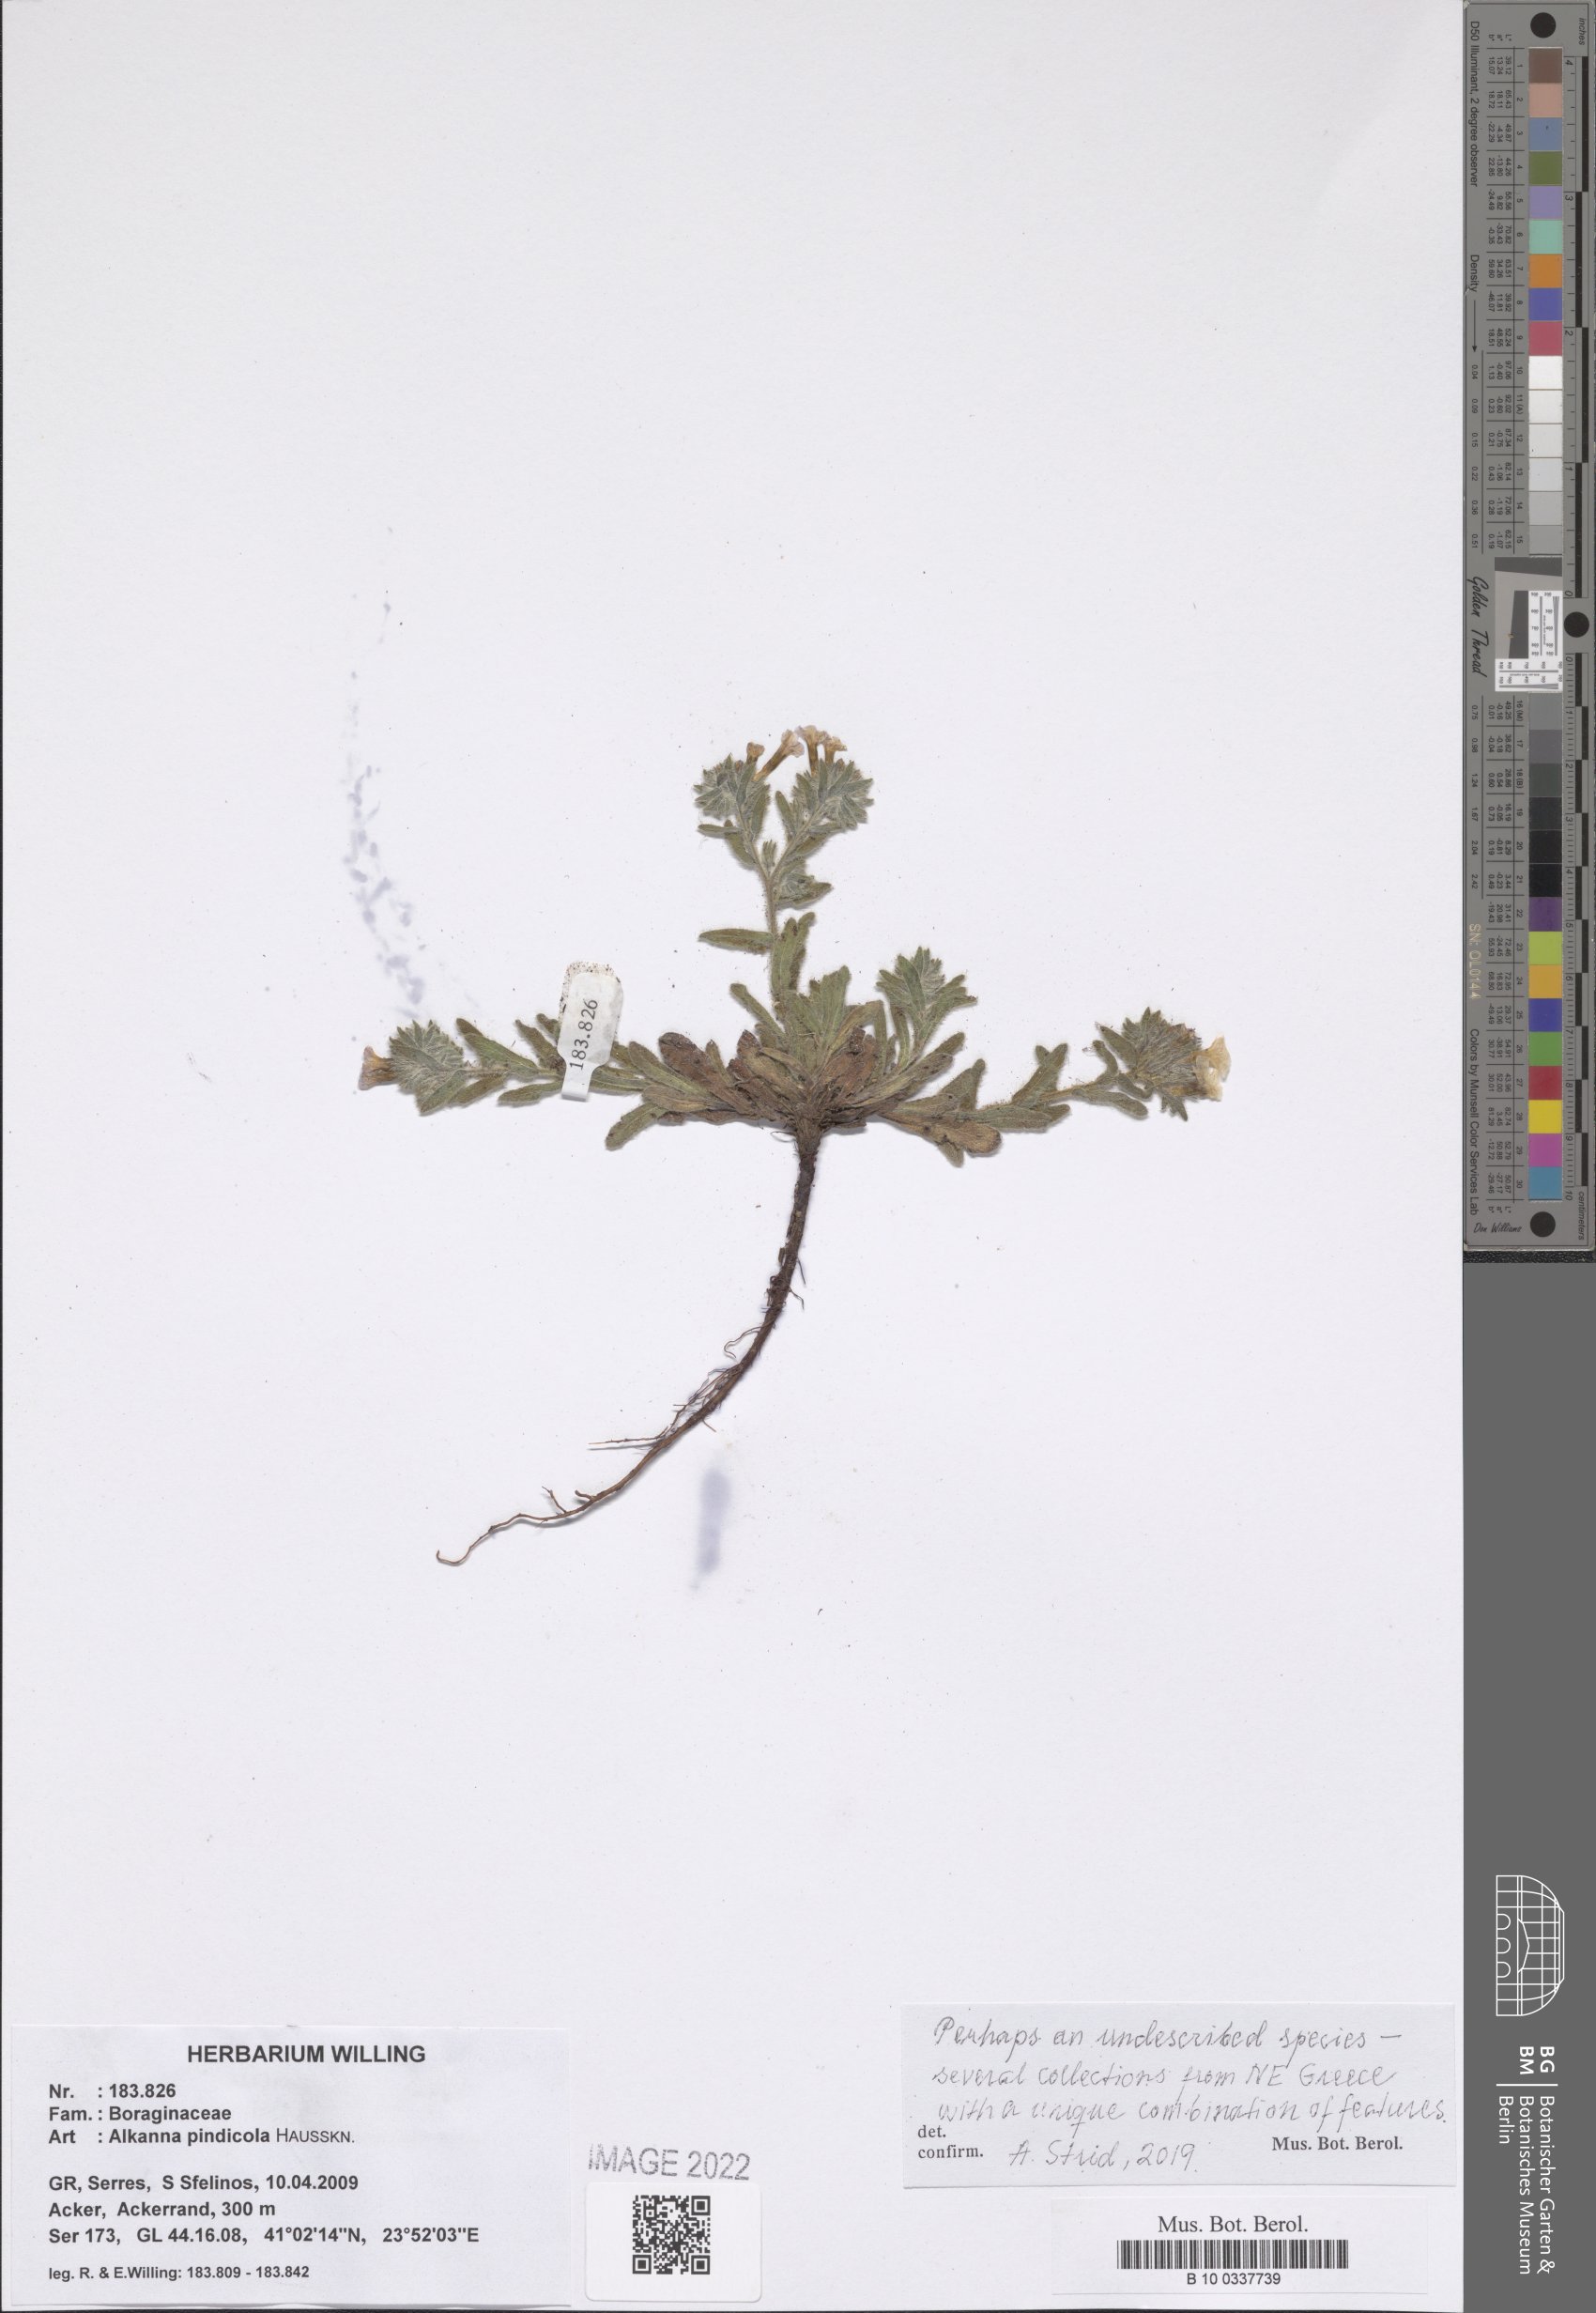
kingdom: Plantae
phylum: Tracheophyta
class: Magnoliopsida
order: Boraginales
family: Boraginaceae
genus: Alkanna
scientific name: Alkanna pindicola
